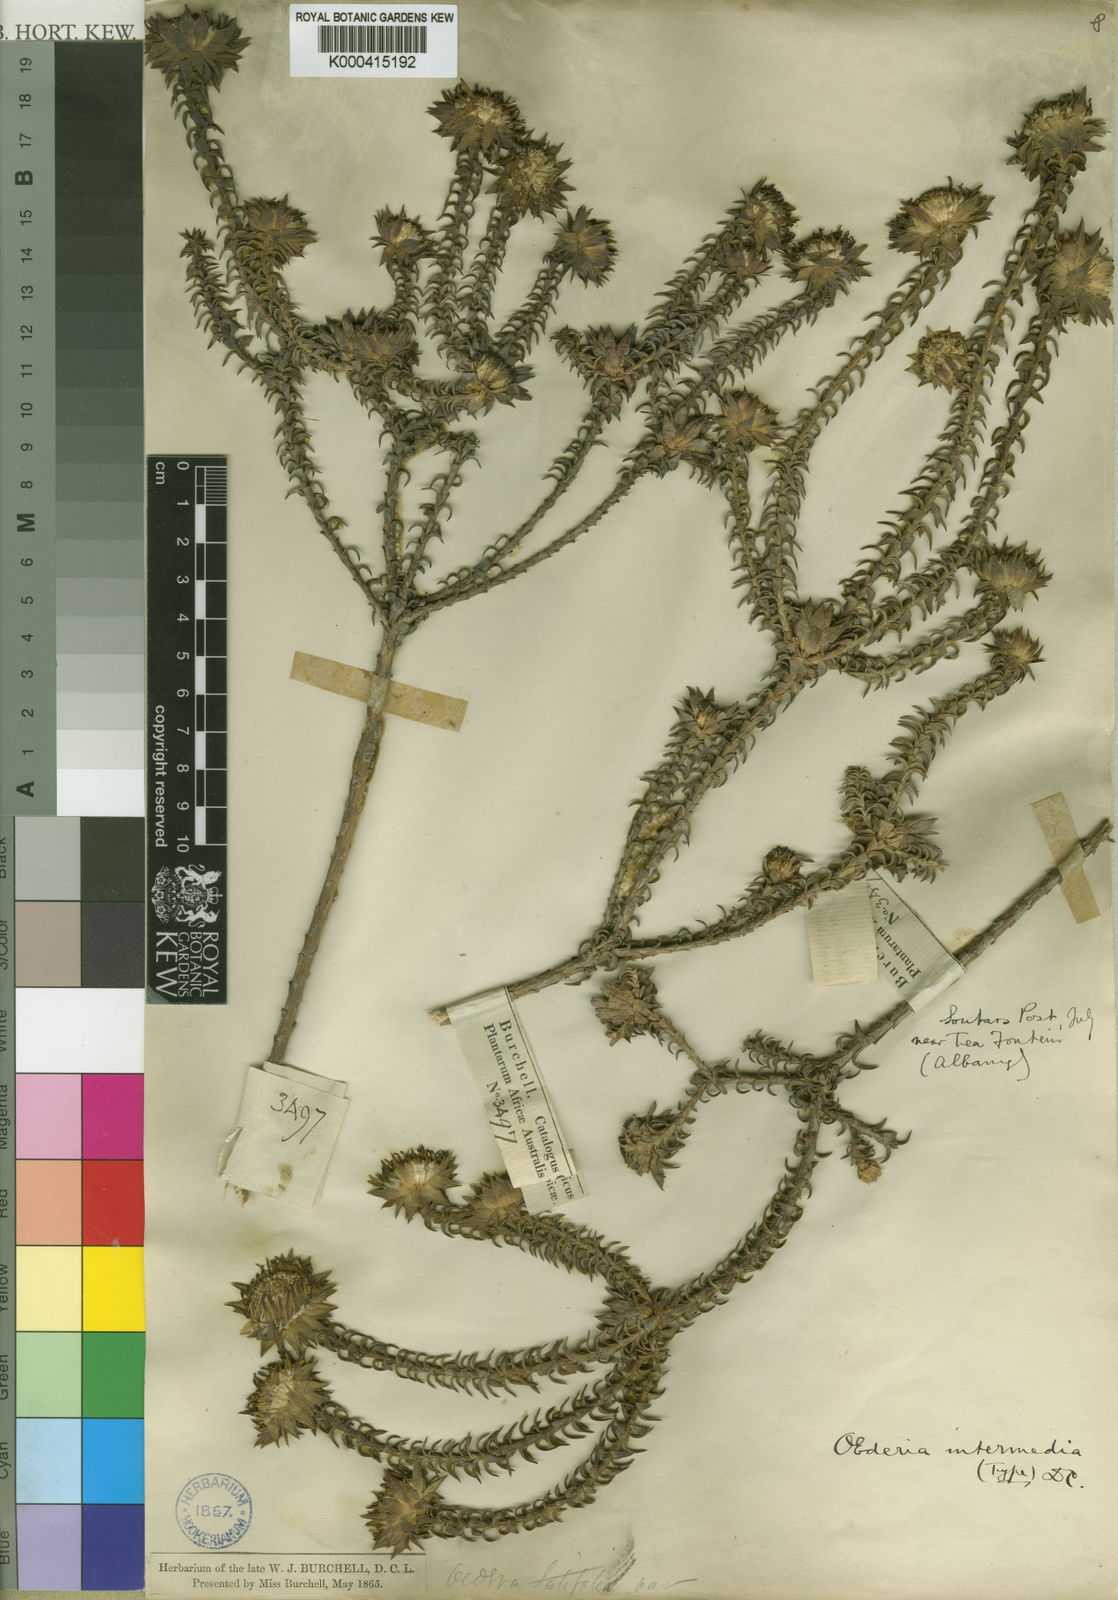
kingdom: Plantae
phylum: Tracheophyta
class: Magnoliopsida
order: Asterales
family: Asteraceae
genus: Oedera
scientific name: Oedera imbricata
